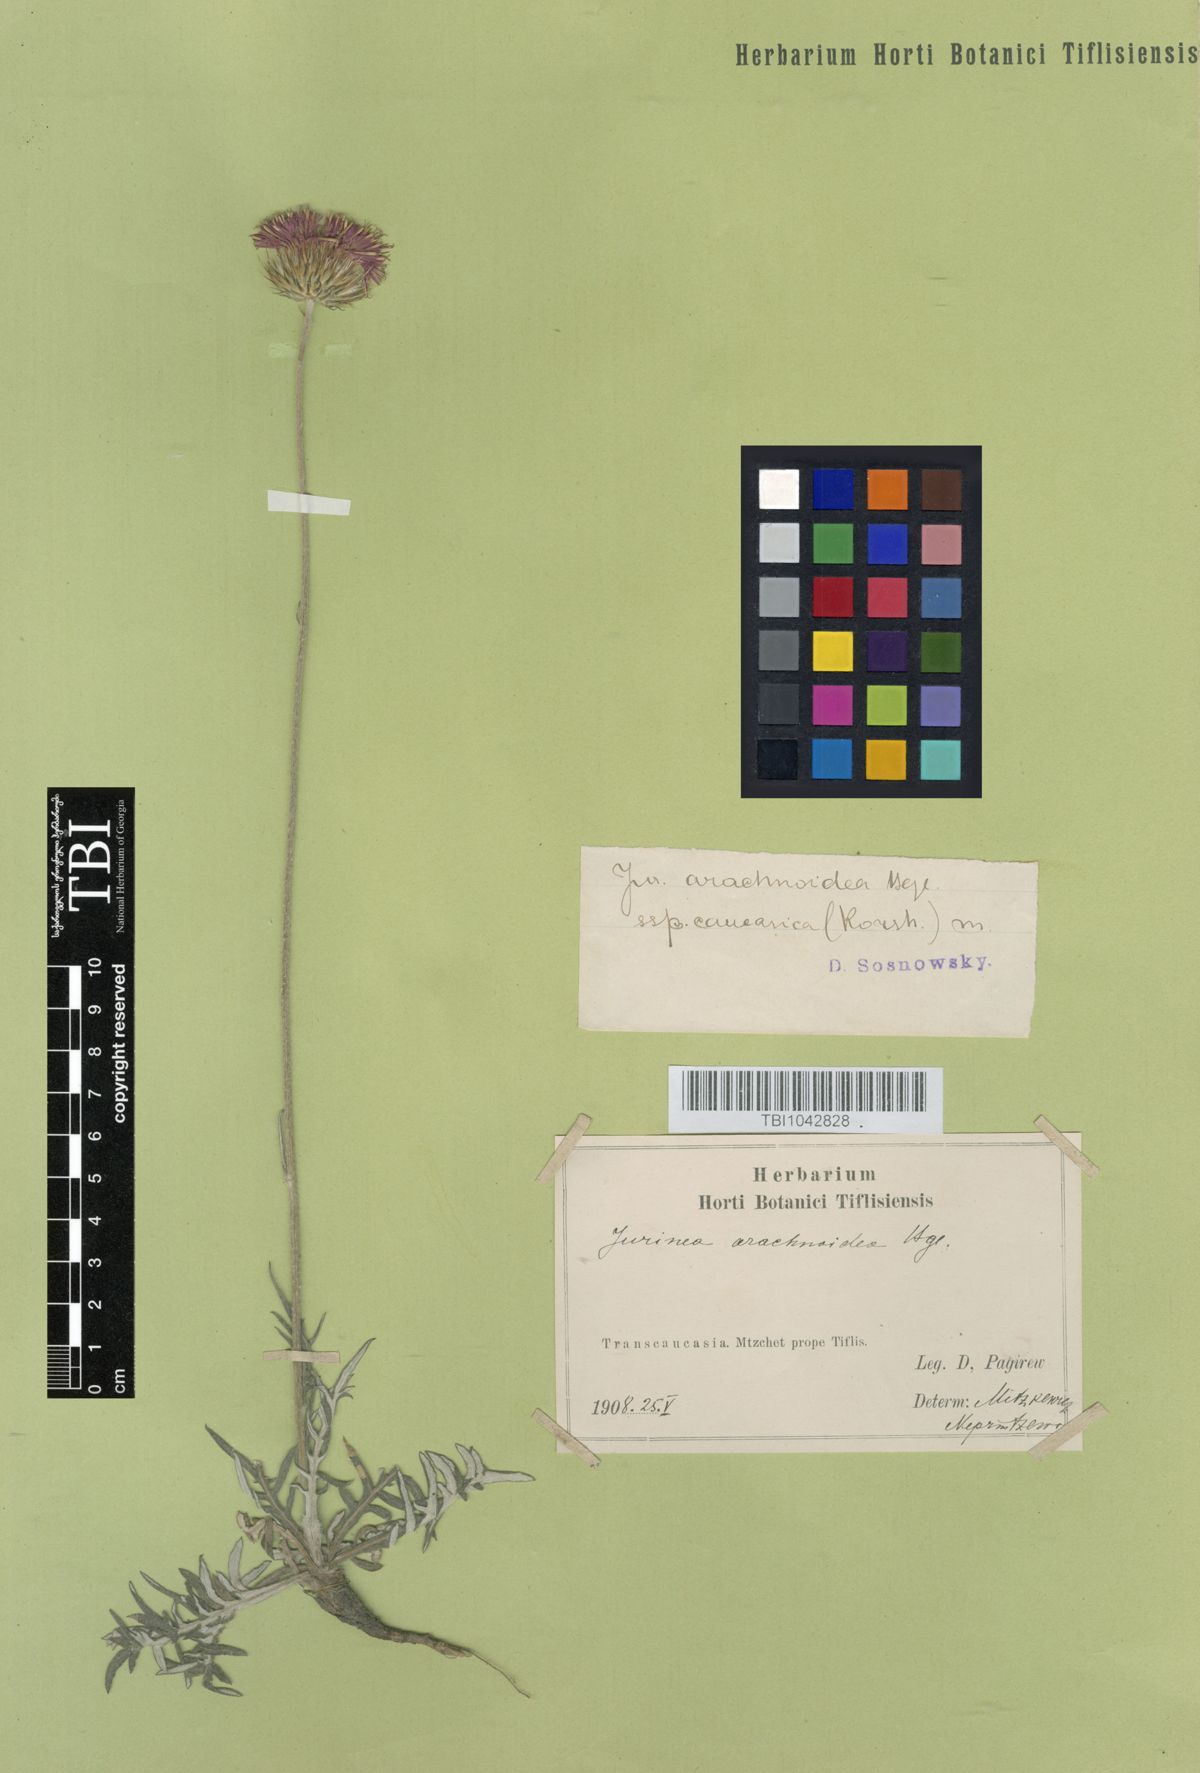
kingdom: Plantae
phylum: Tracheophyta
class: Magnoliopsida
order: Asterales
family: Asteraceae
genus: Jurinea
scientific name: Jurinea blanda
